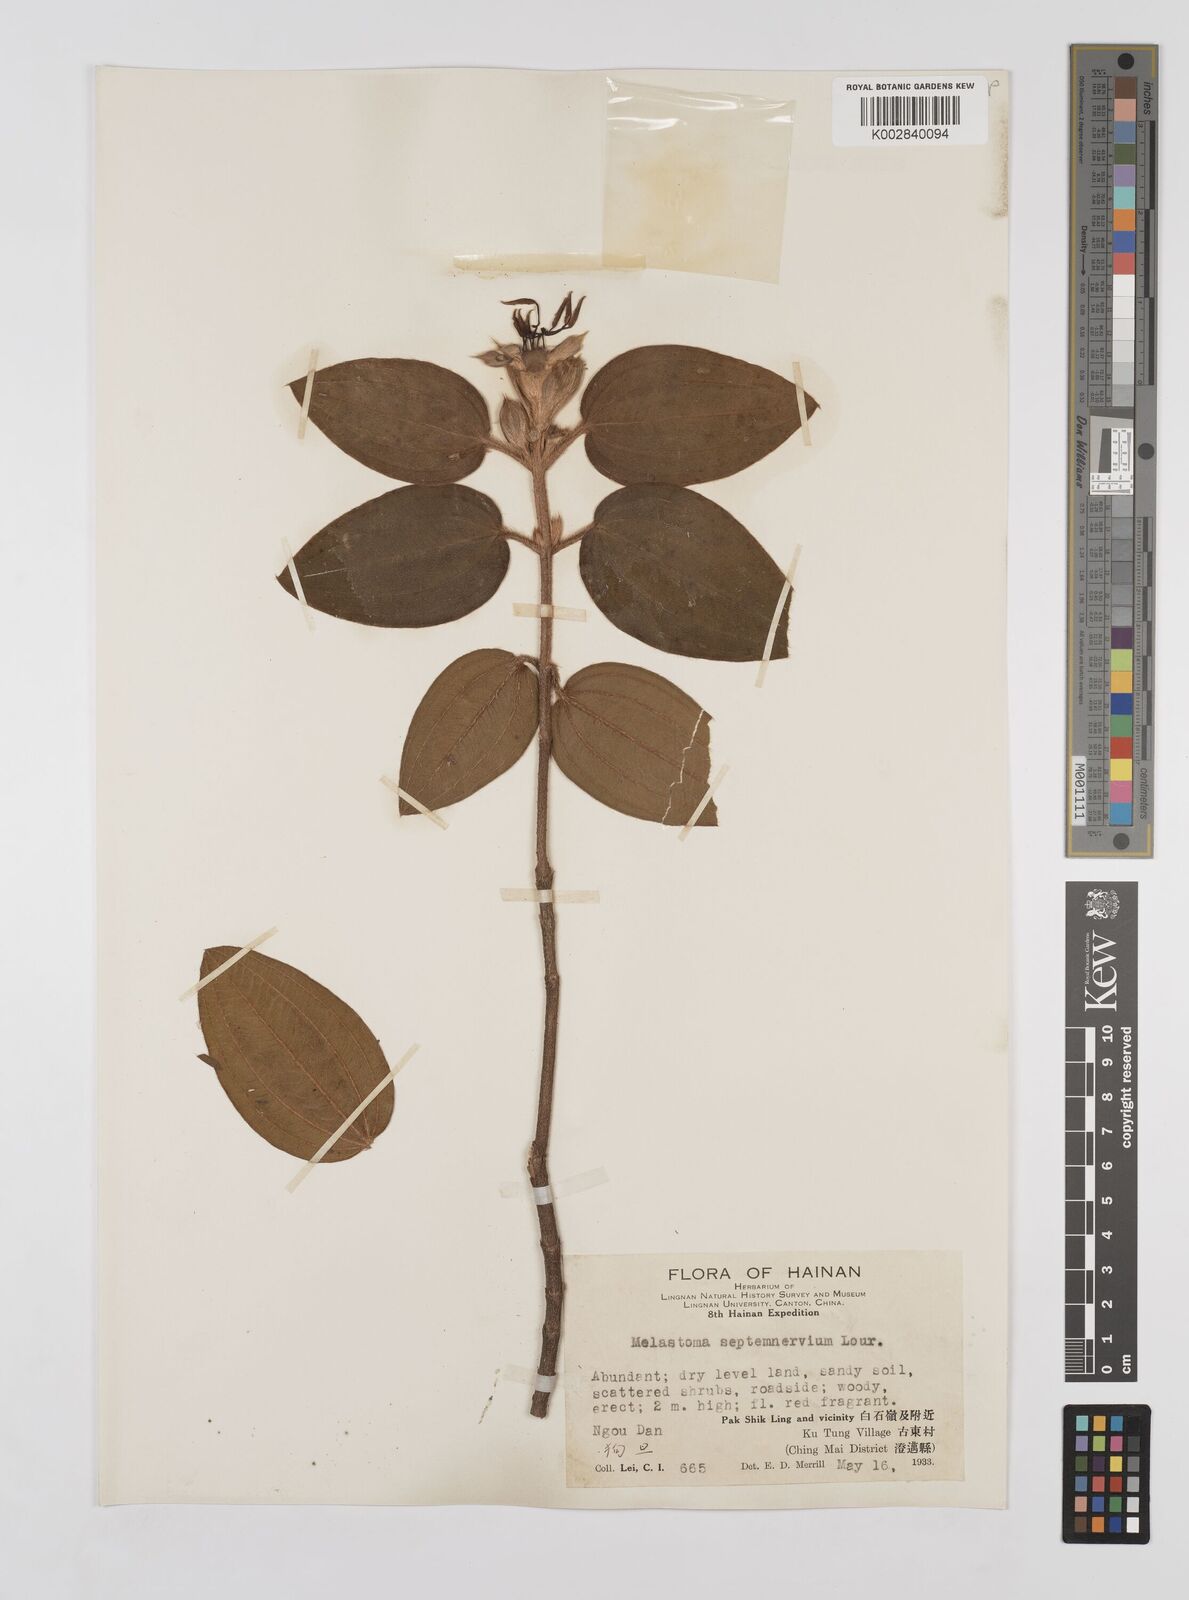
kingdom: Plantae
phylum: Tracheophyta
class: Magnoliopsida
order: Myrtales
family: Melastomataceae
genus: Melastoma
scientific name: Melastoma malabathricum
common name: Indian-rhododendron
